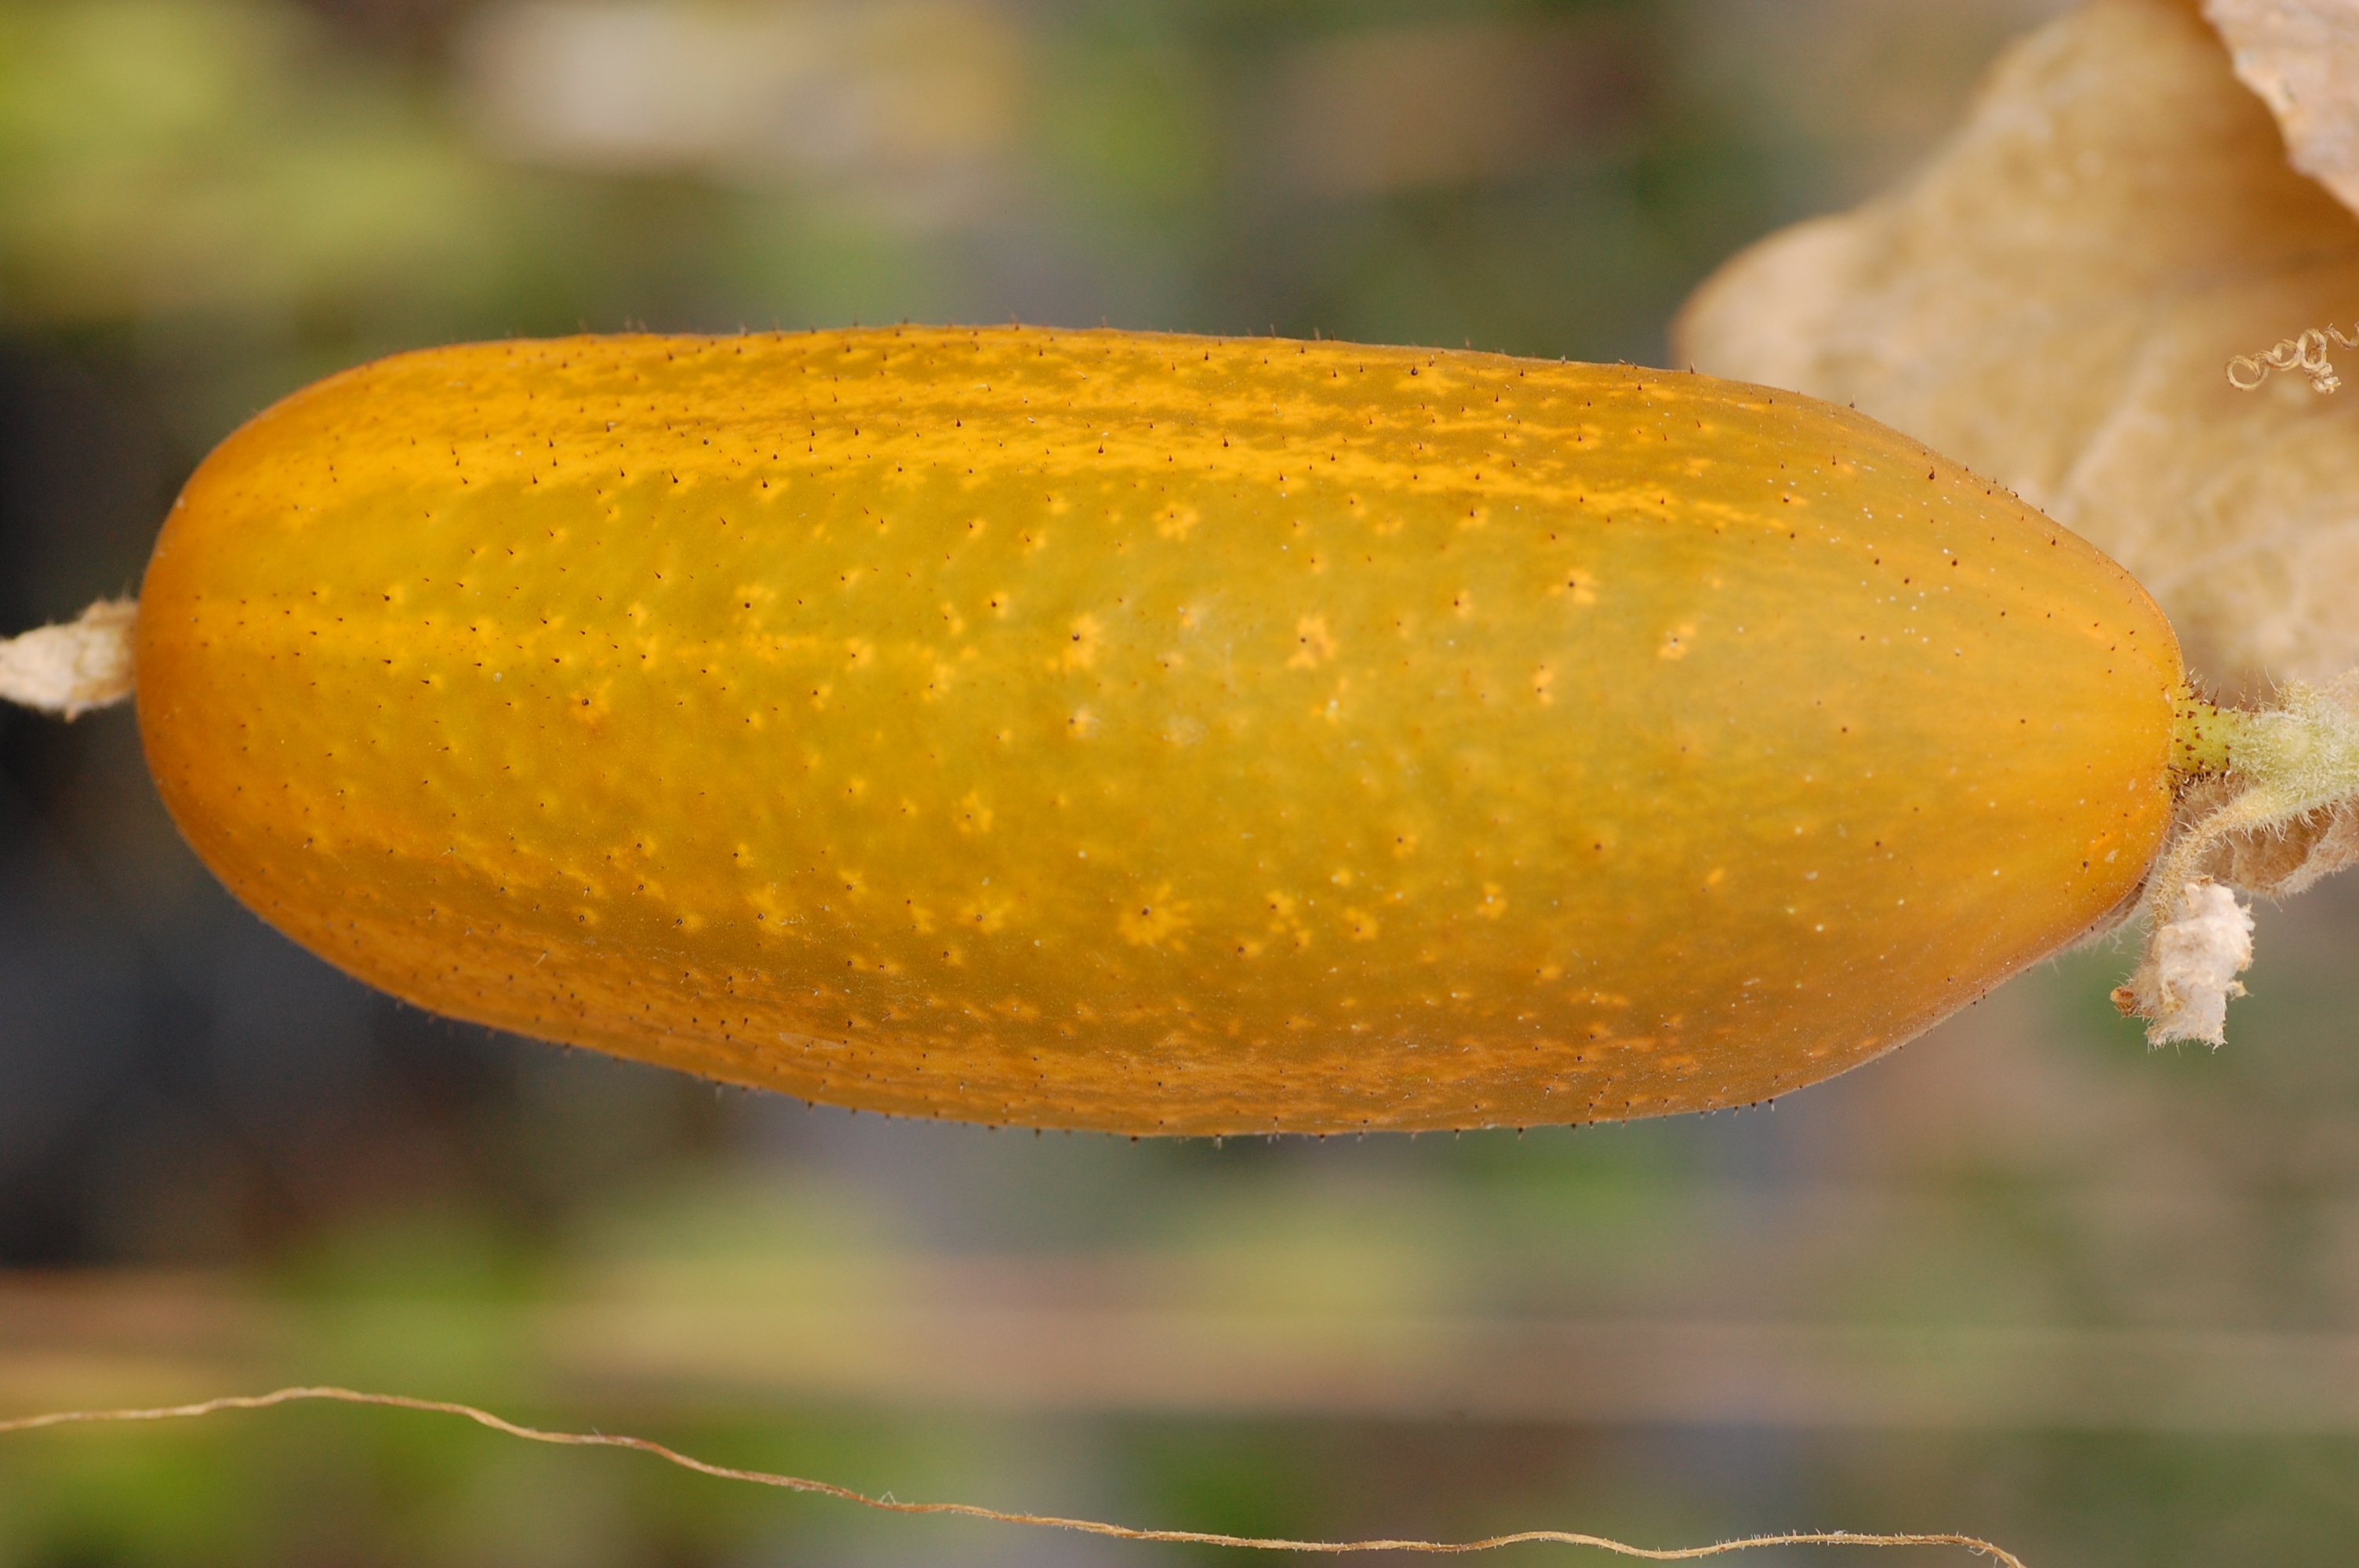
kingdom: Plantae
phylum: Tracheophyta
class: Magnoliopsida
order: Cucurbitales
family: Cucurbitaceae
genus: Cucumis
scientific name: Cucumis sativus
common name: Cucumber
